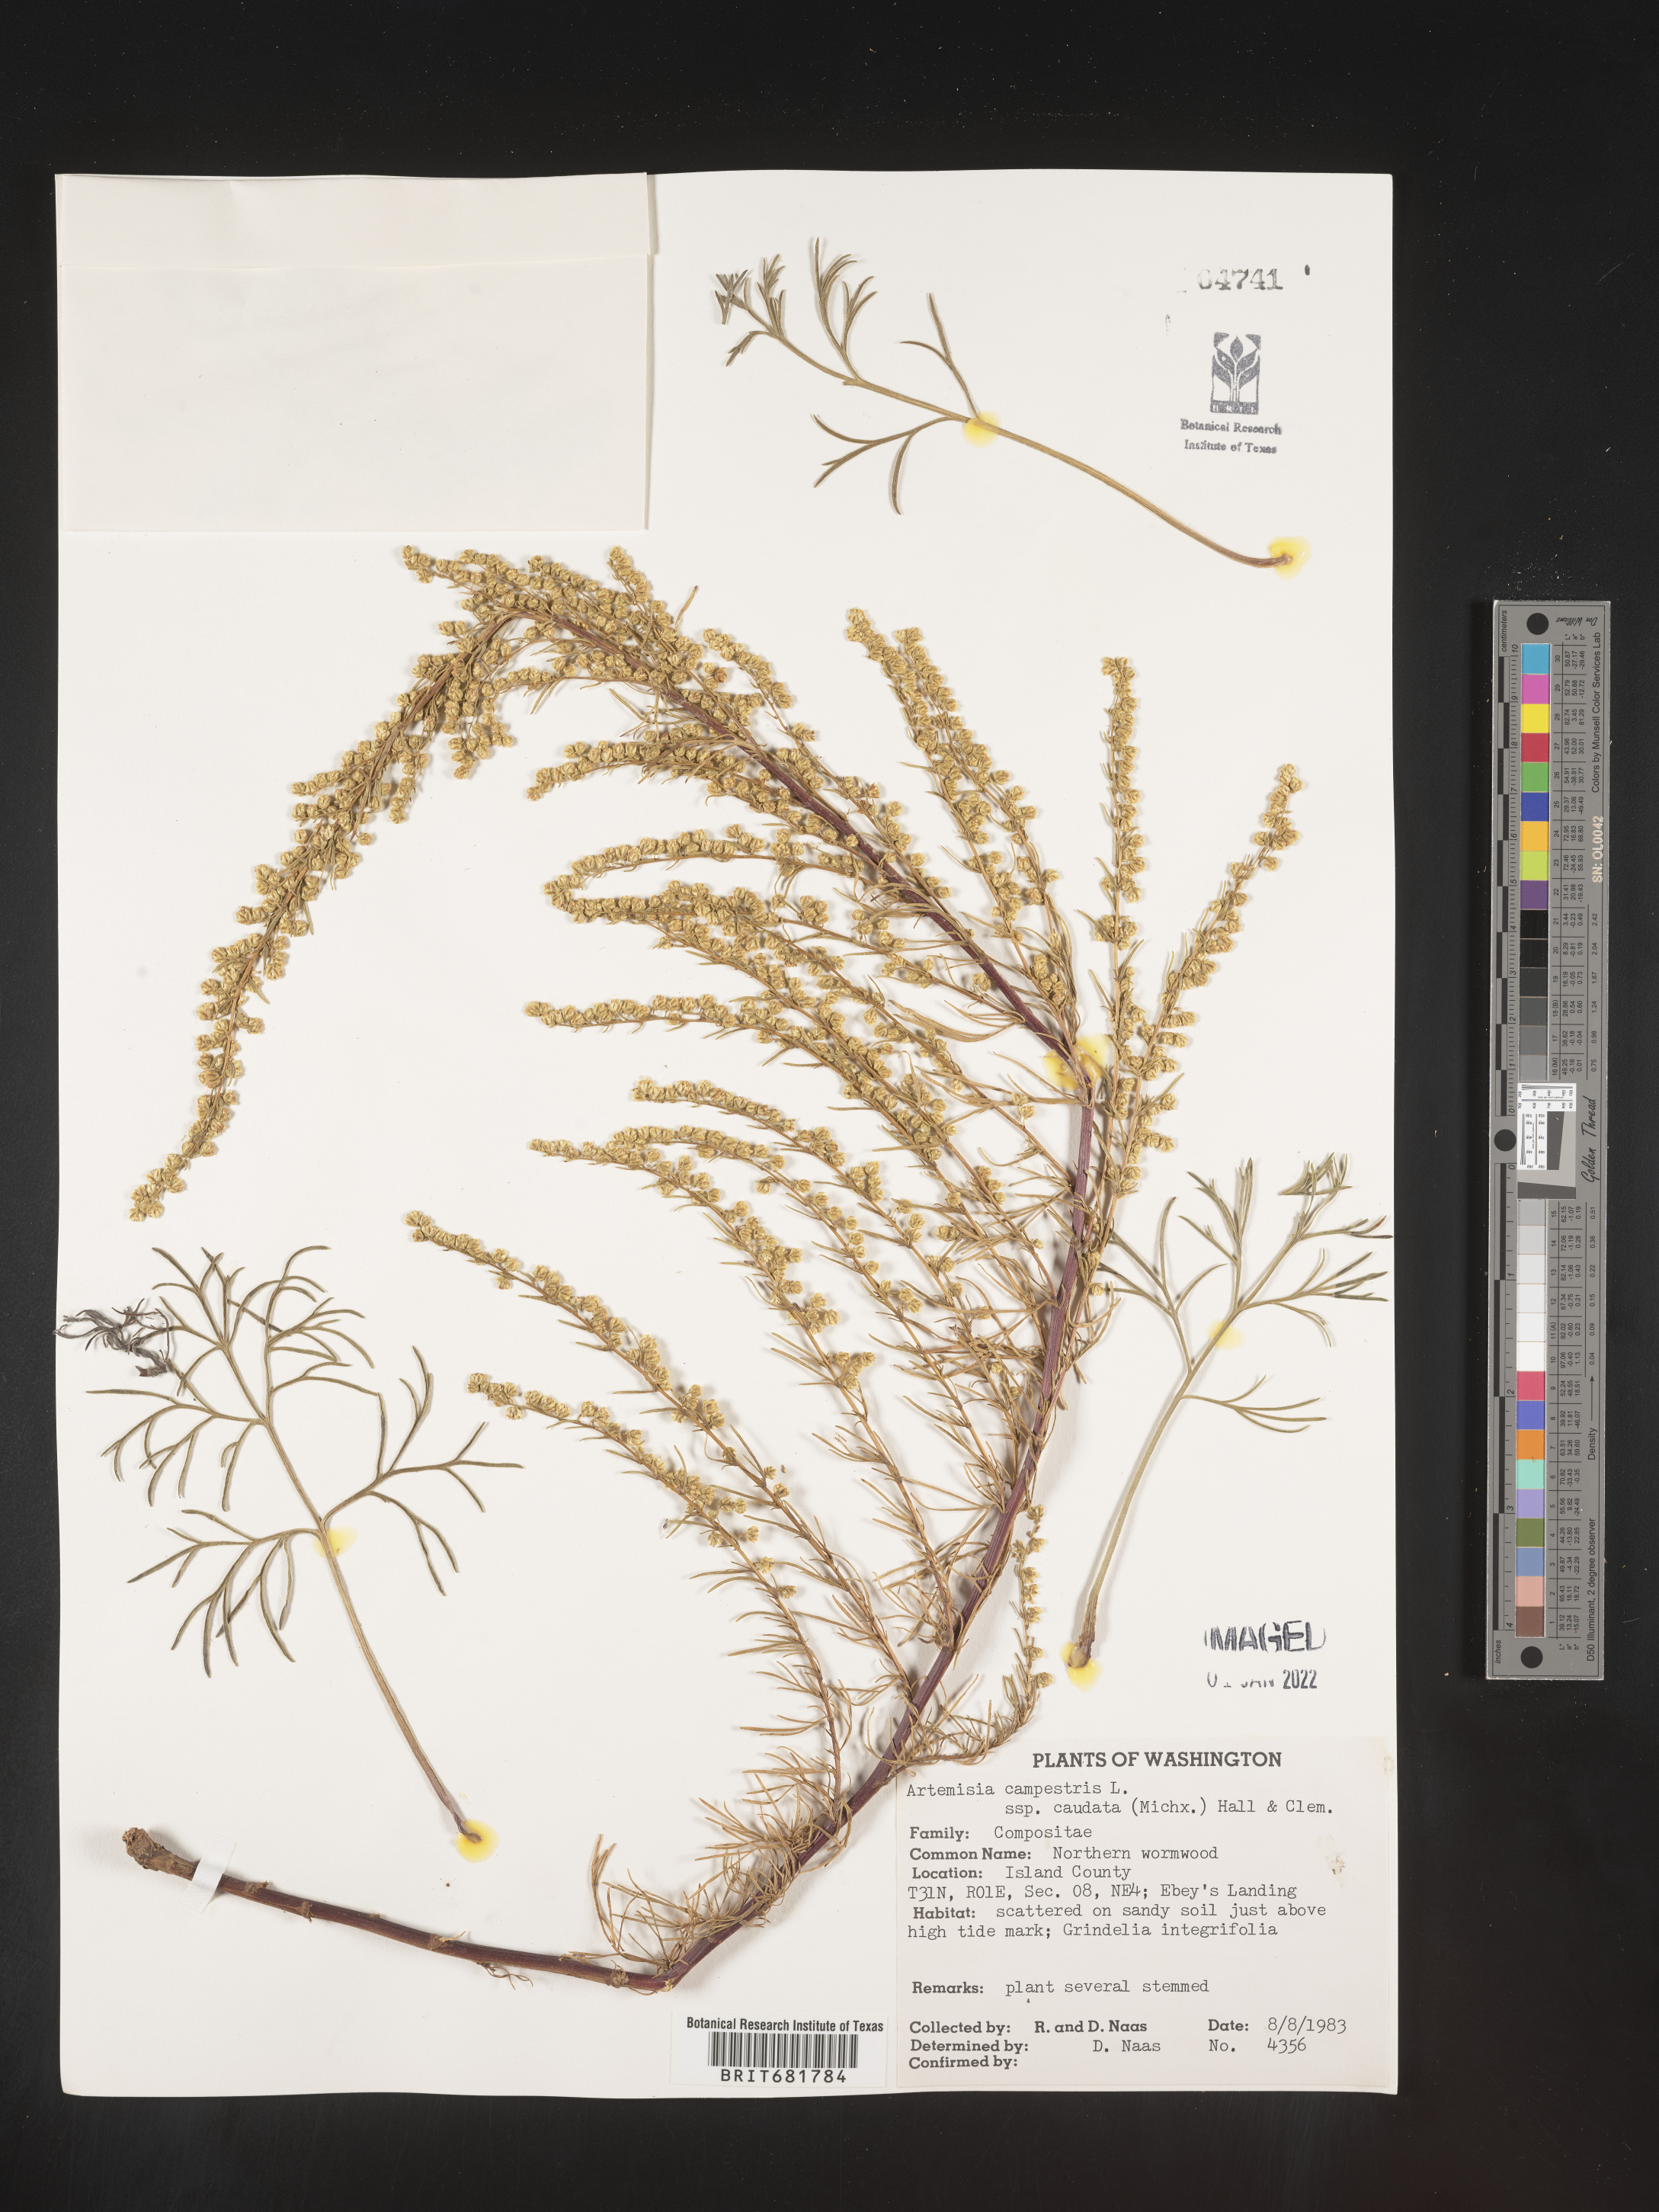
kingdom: Plantae
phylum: Tracheophyta
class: Magnoliopsida
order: Asterales
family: Asteraceae
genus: Artemisia
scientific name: Artemisia campestris
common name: Field wormwood
